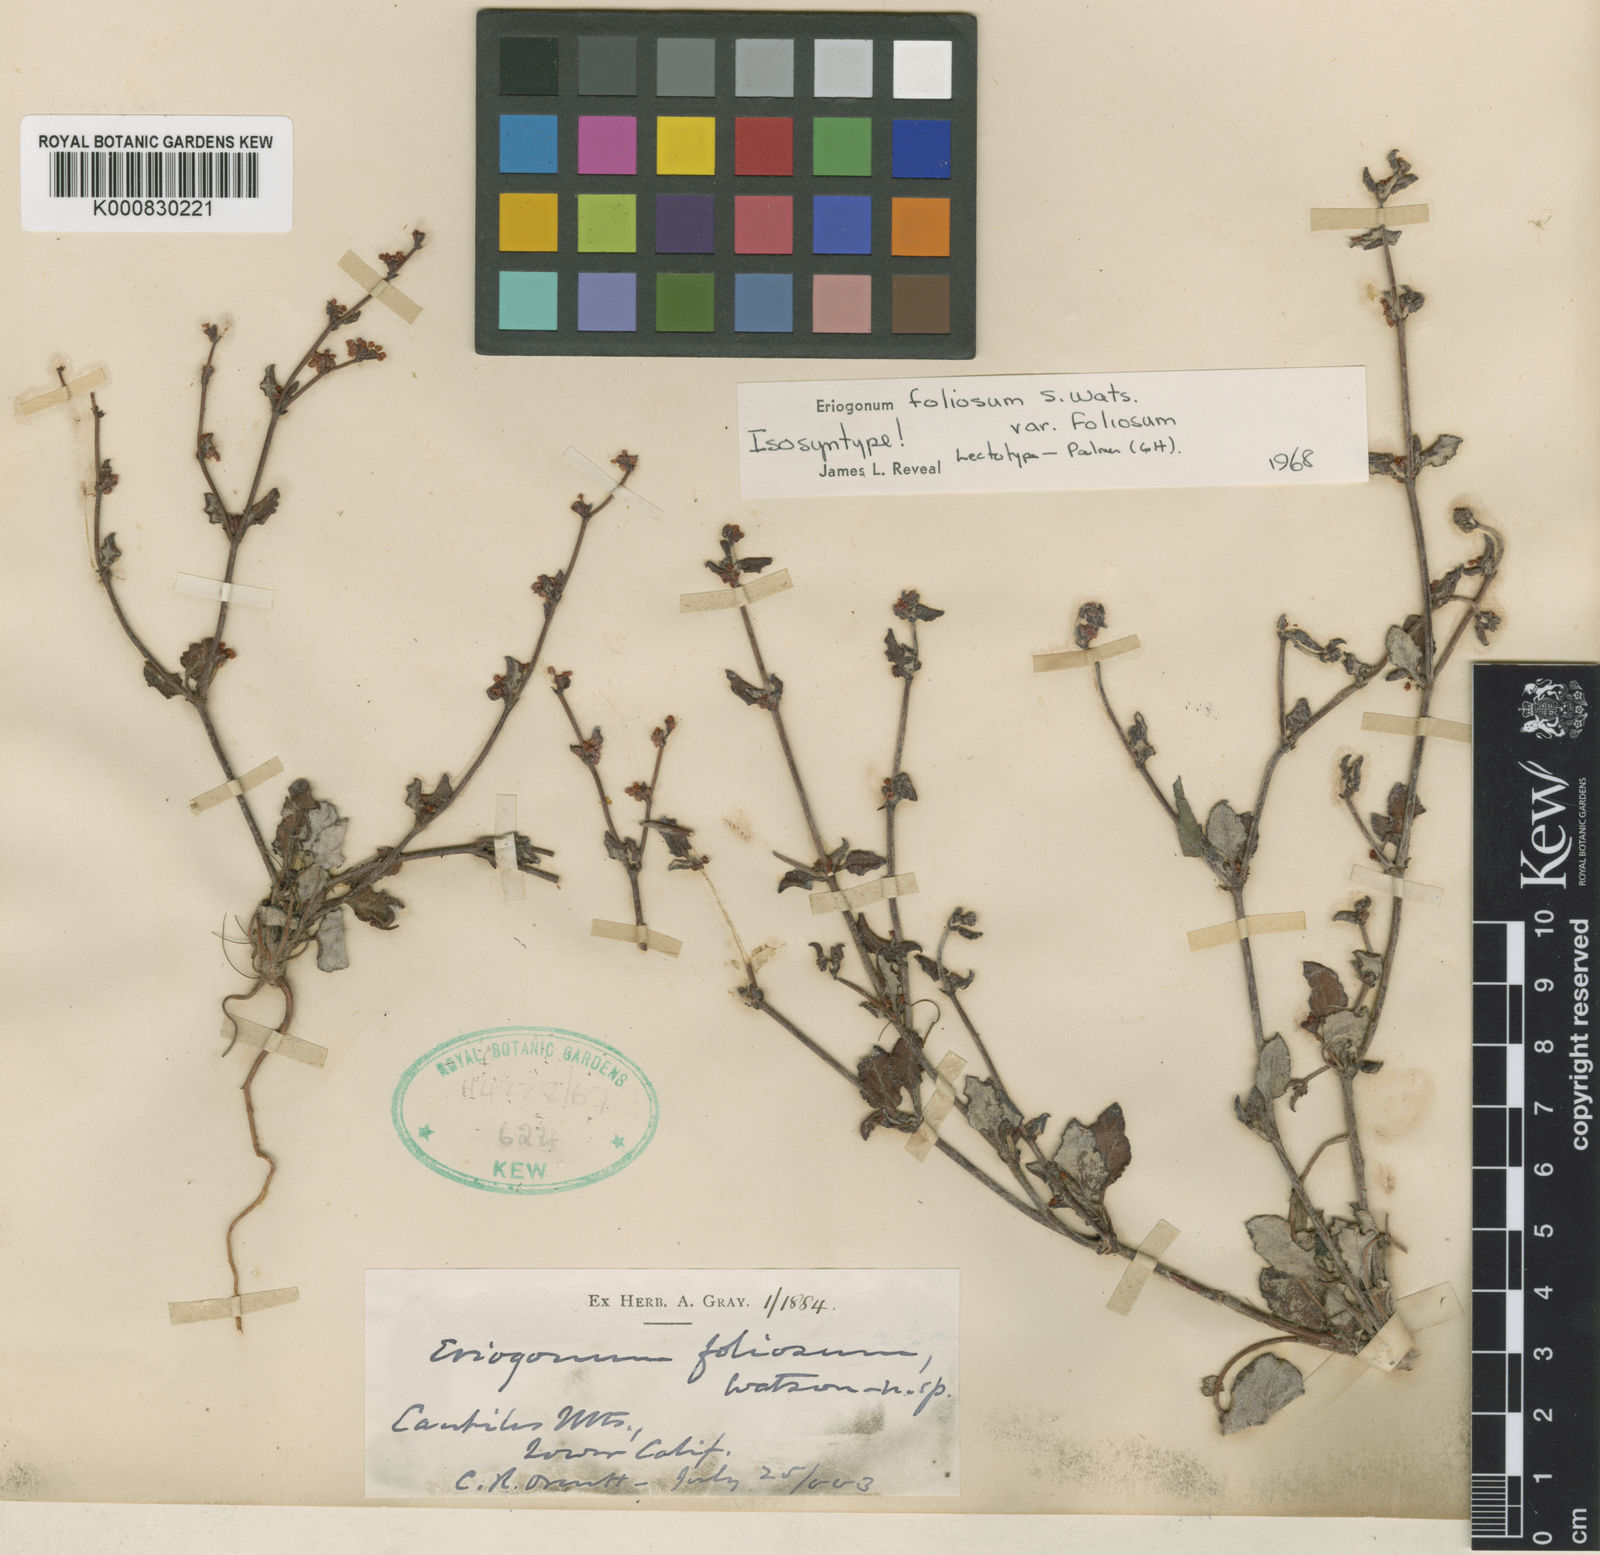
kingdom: Plantae
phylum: Tracheophyta
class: Magnoliopsida
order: Caryophyllales
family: Polygonaceae
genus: Eriogonum
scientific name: Eriogonum foliosum
